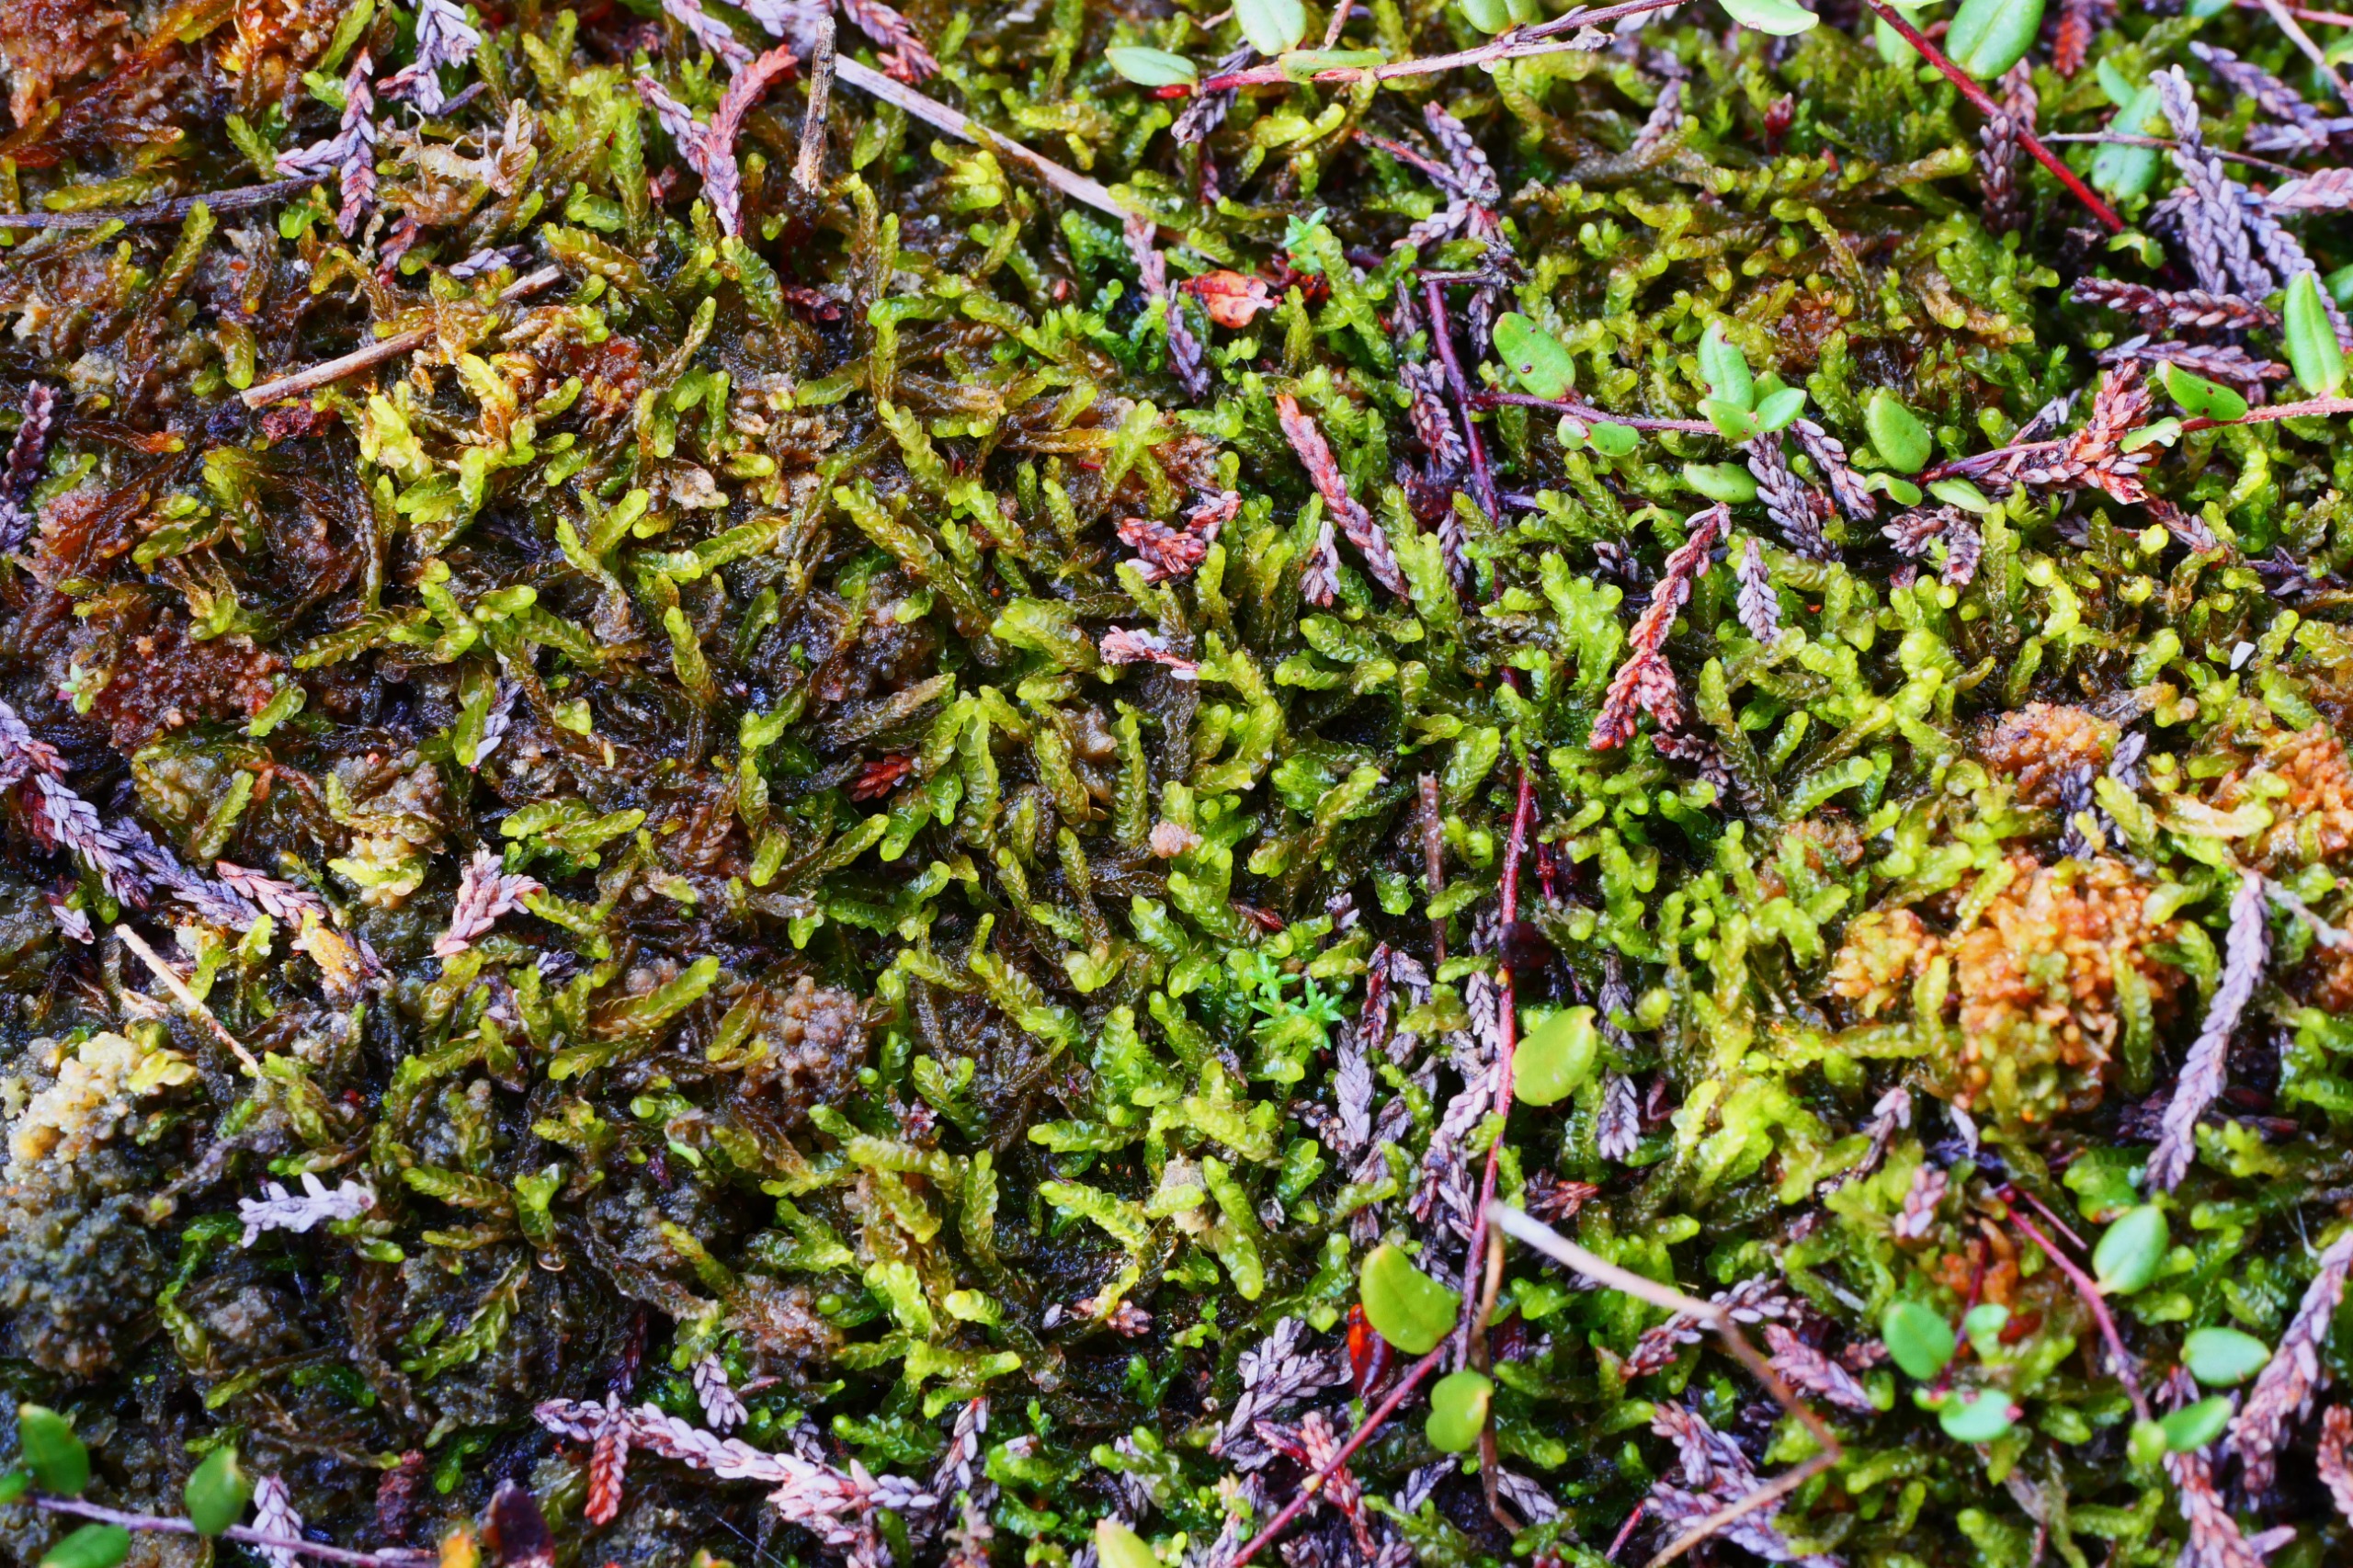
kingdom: Plantae
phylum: Marchantiophyta
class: Jungermanniopsida
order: Jungermanniales
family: Cephaloziaceae
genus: Odontoschisma
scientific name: Odontoschisma sphagni
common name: Almindelig flagelmos
